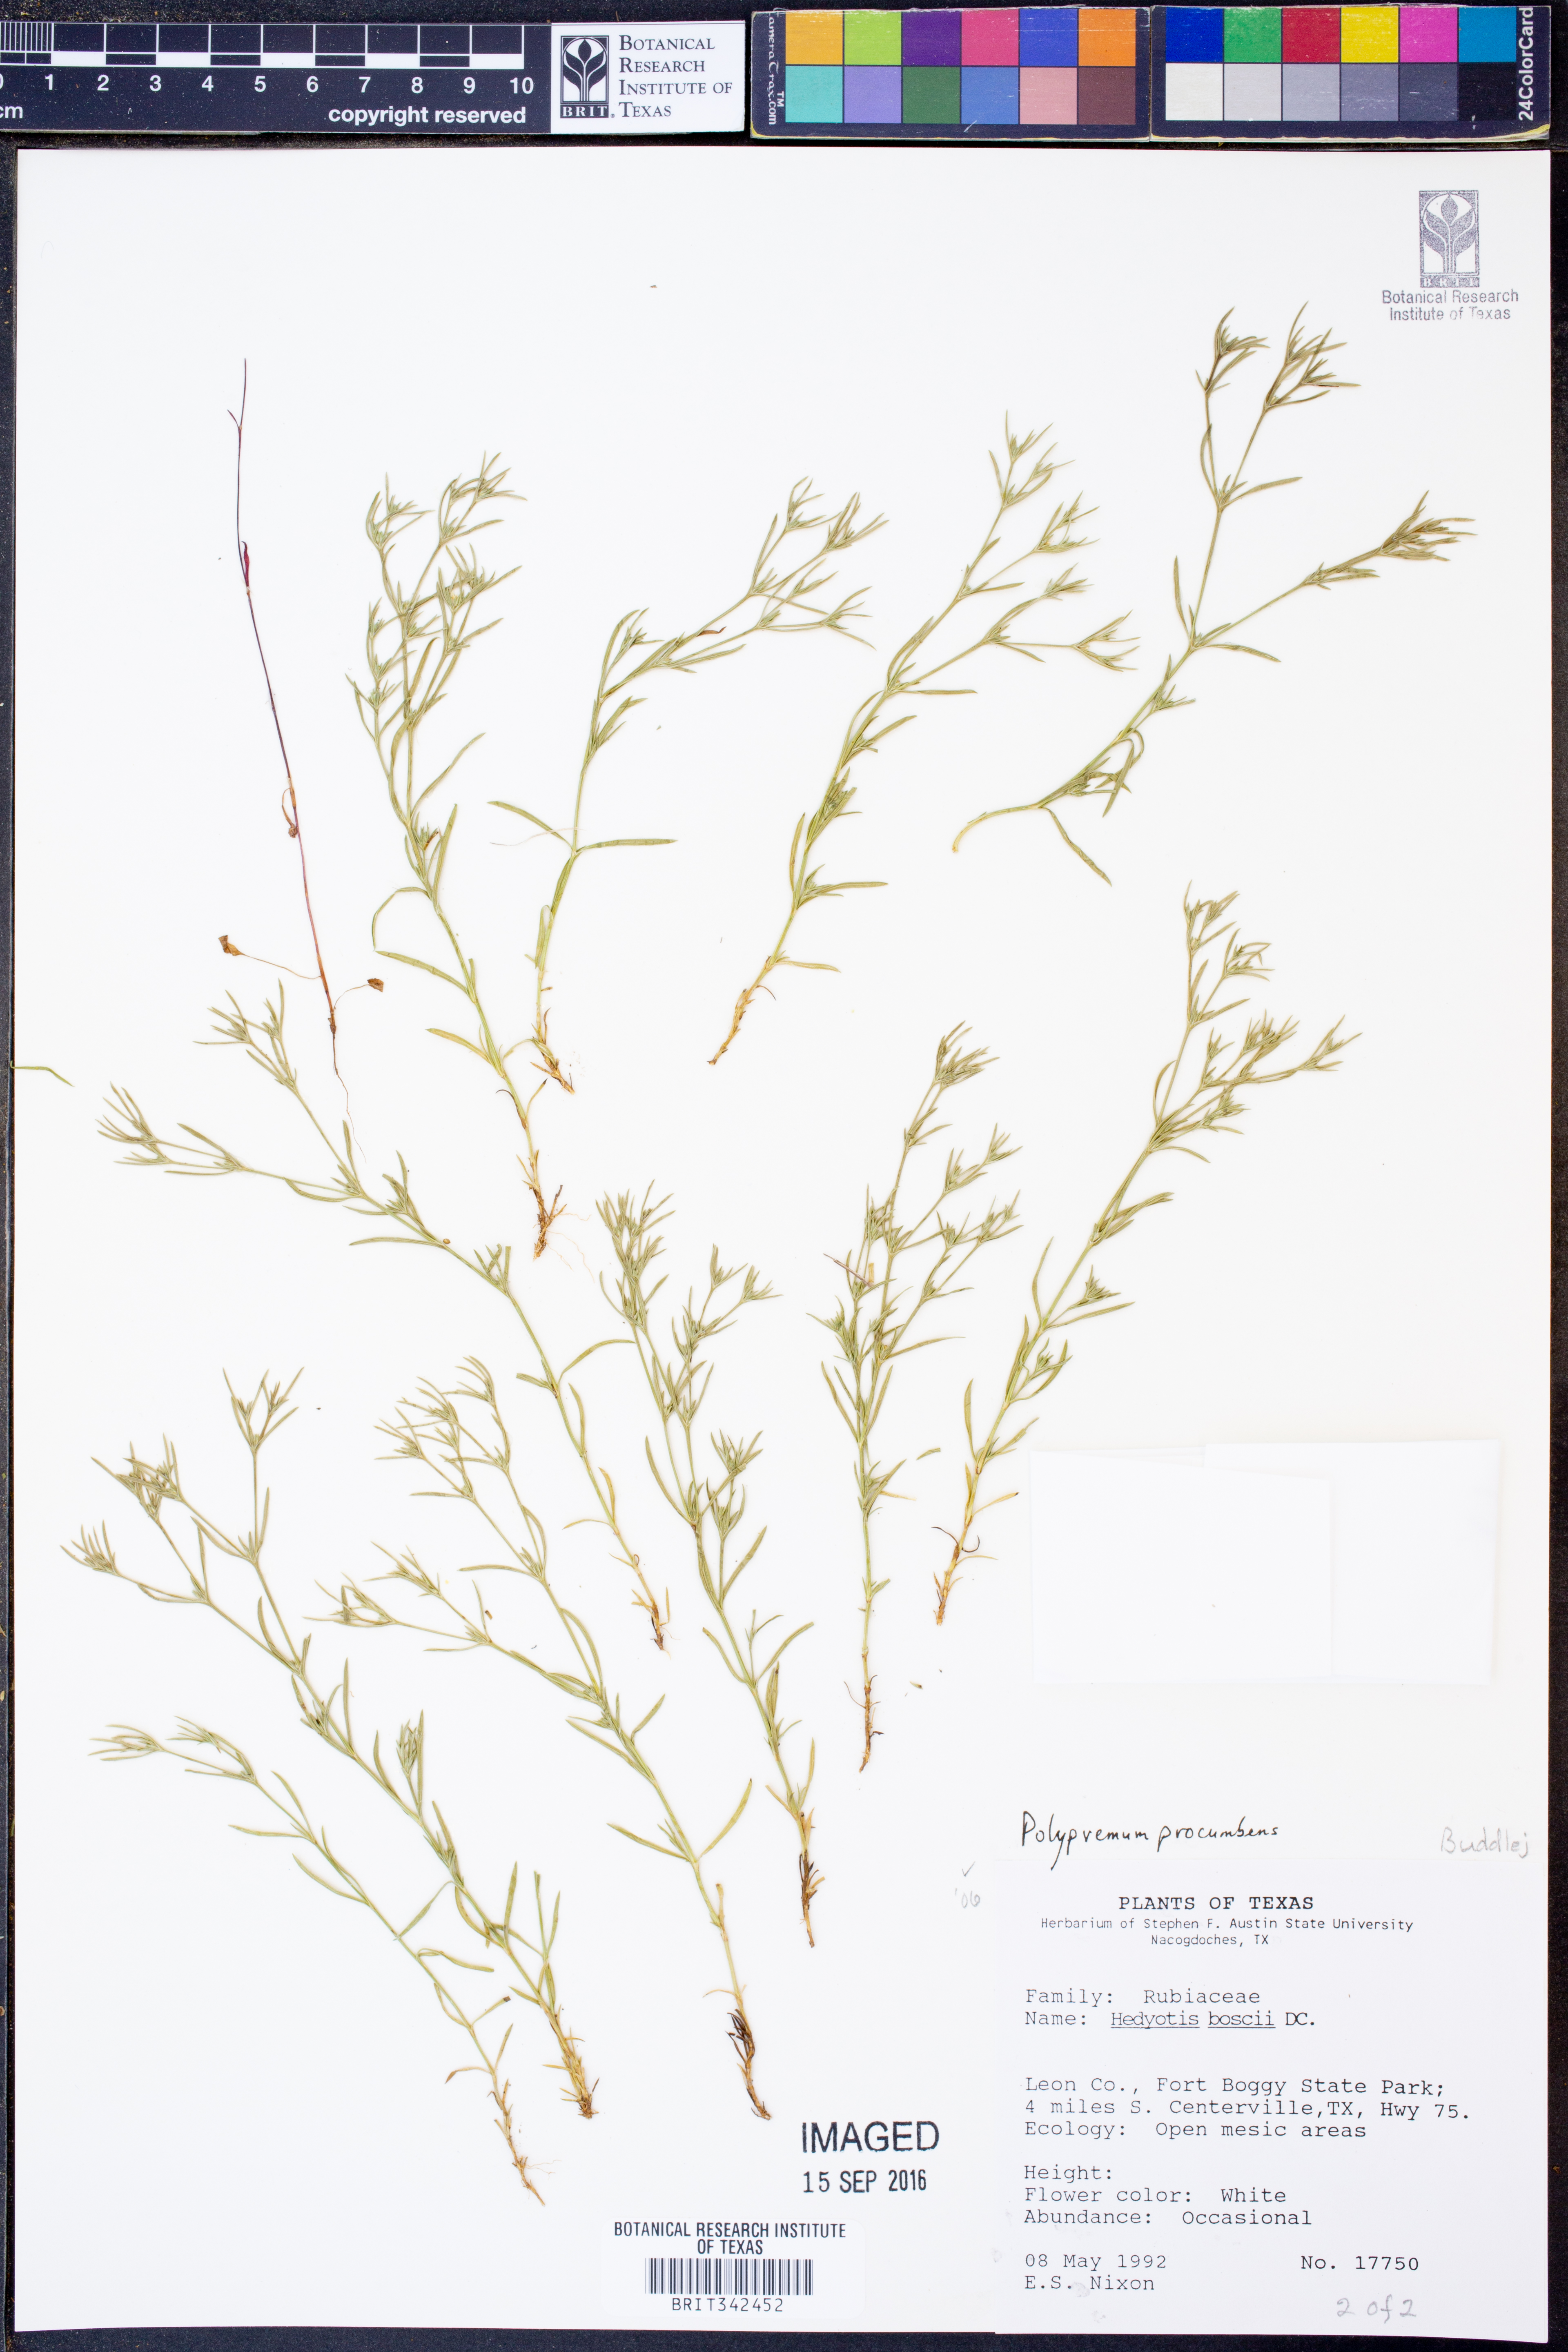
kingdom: Plantae
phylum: Tracheophyta
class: Magnoliopsida
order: Lamiales
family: Tetrachondraceae
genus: Polypremum
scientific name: Polypremum procumbens
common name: Juniper-leaf
